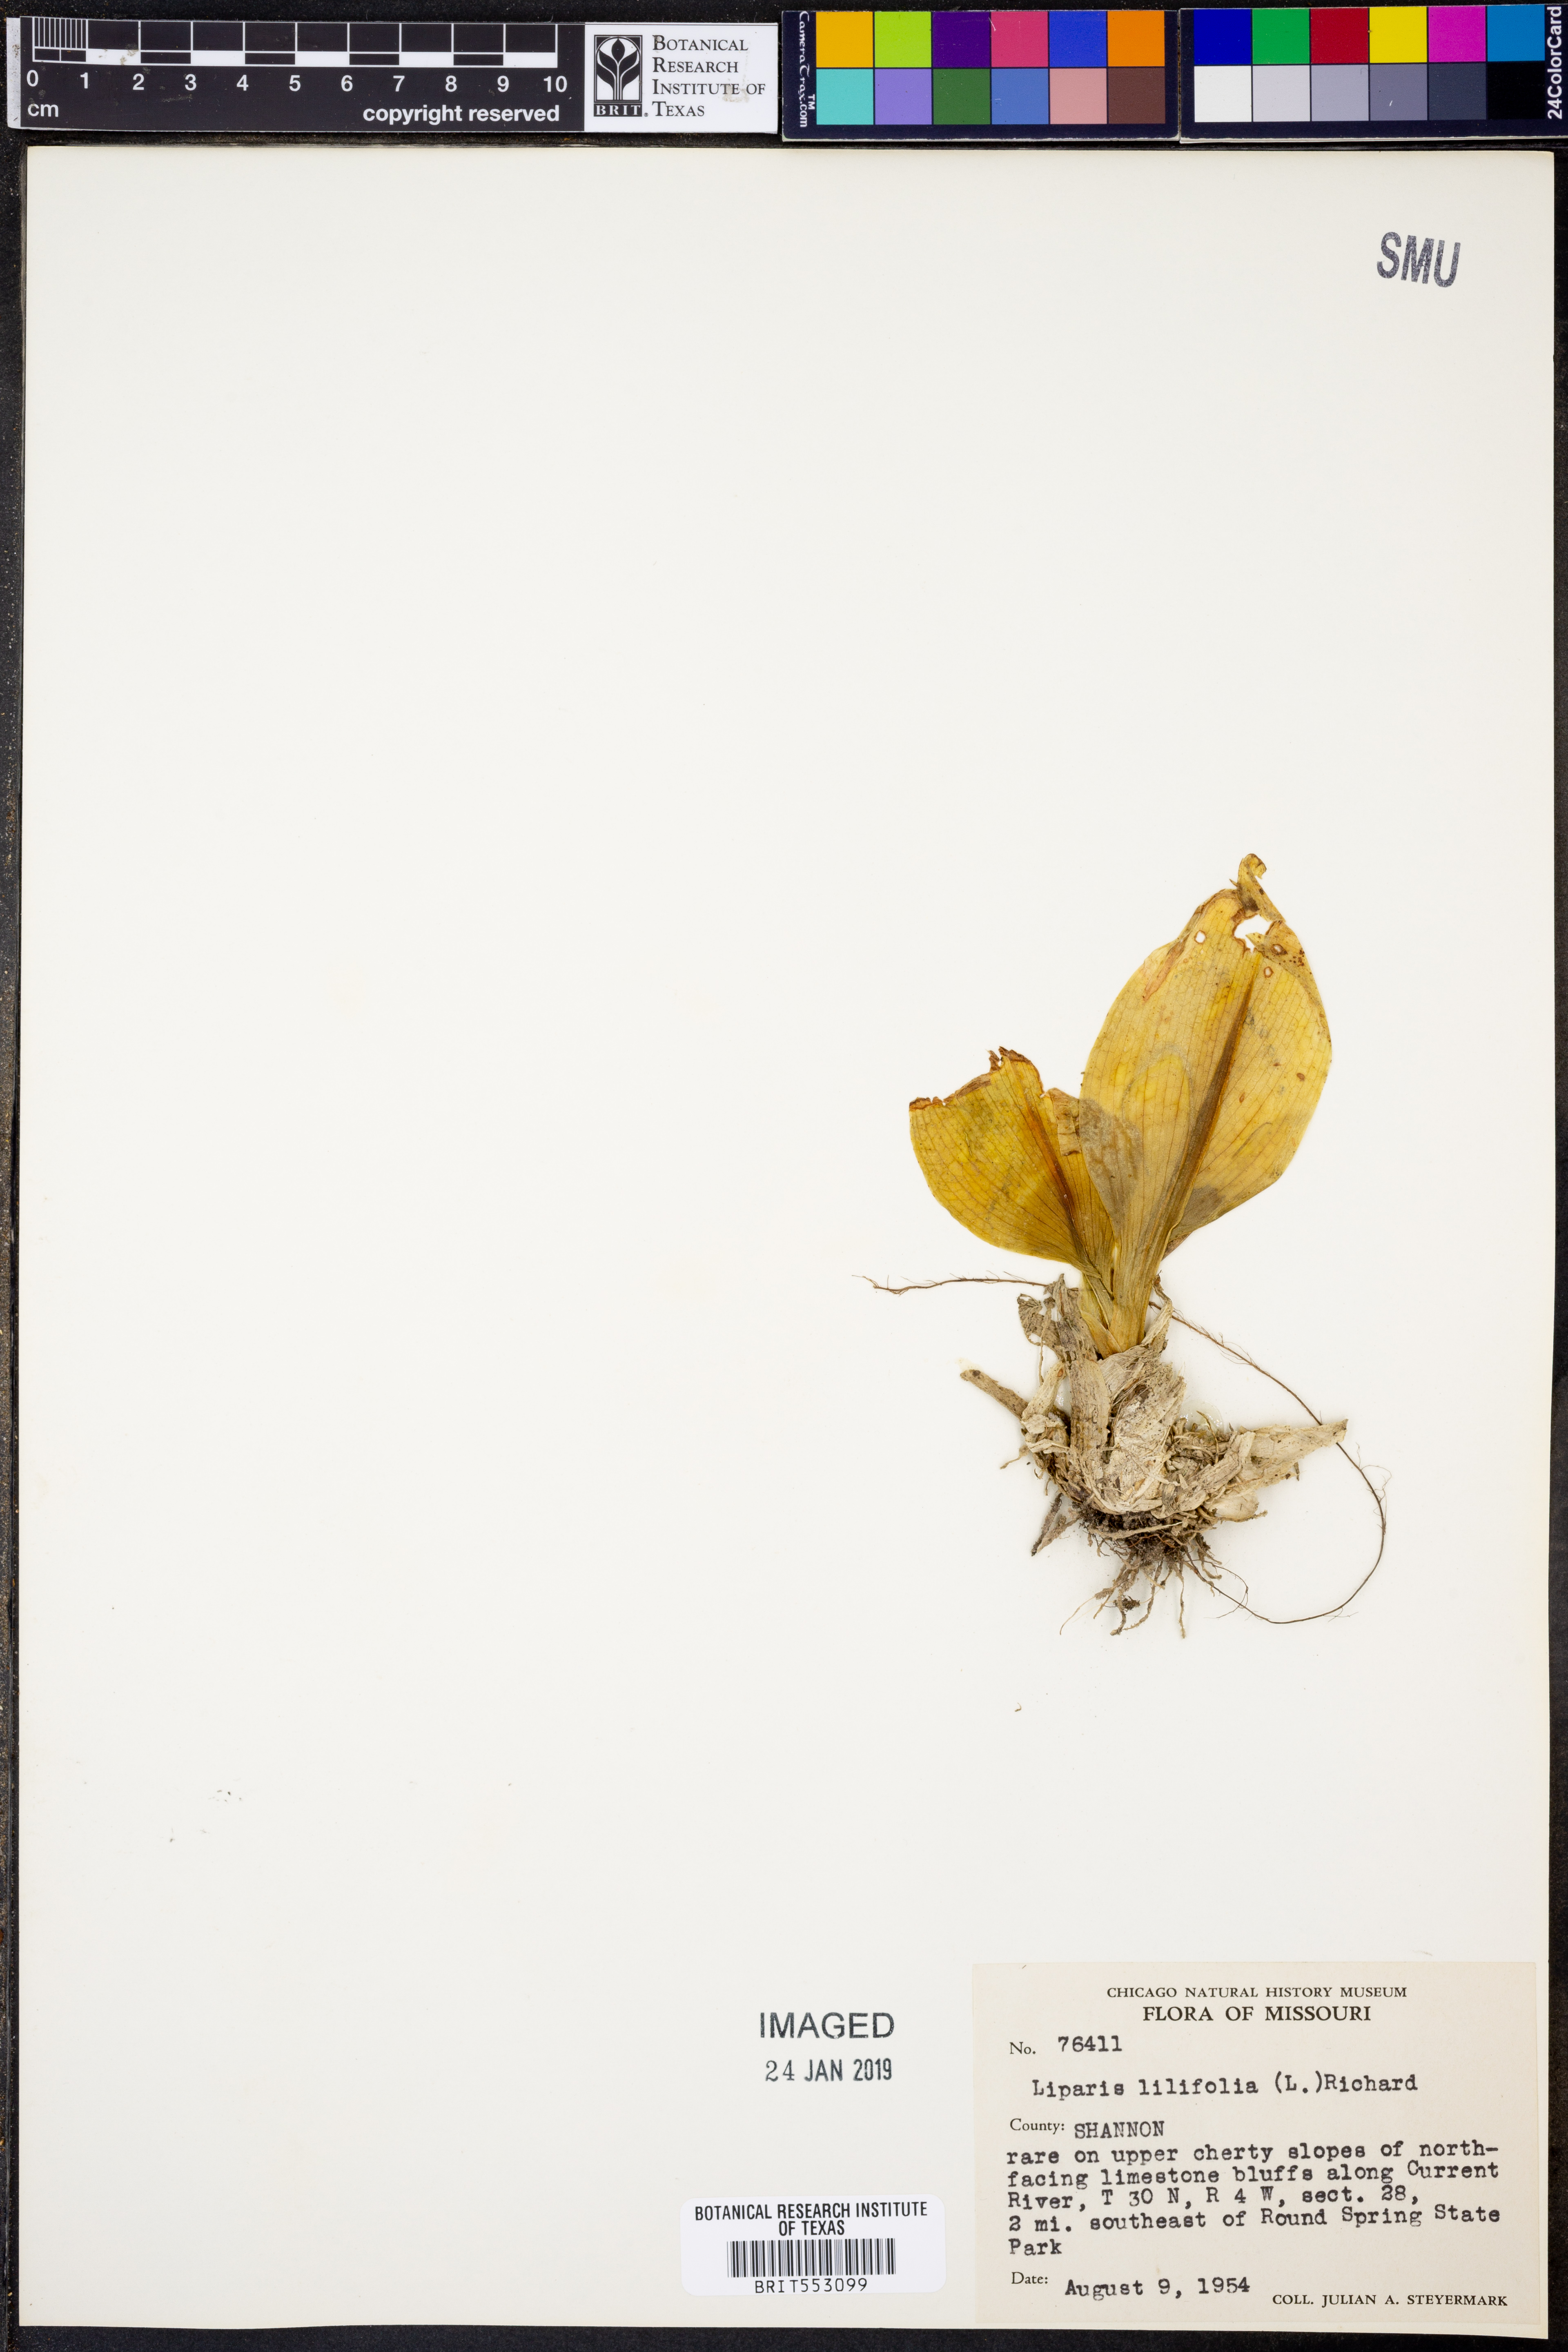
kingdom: Plantae
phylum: Tracheophyta
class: Liliopsida
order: Asparagales
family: Orchidaceae
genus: Liparis
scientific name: Liparis liliifolia
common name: Brown wide-lip orchid
